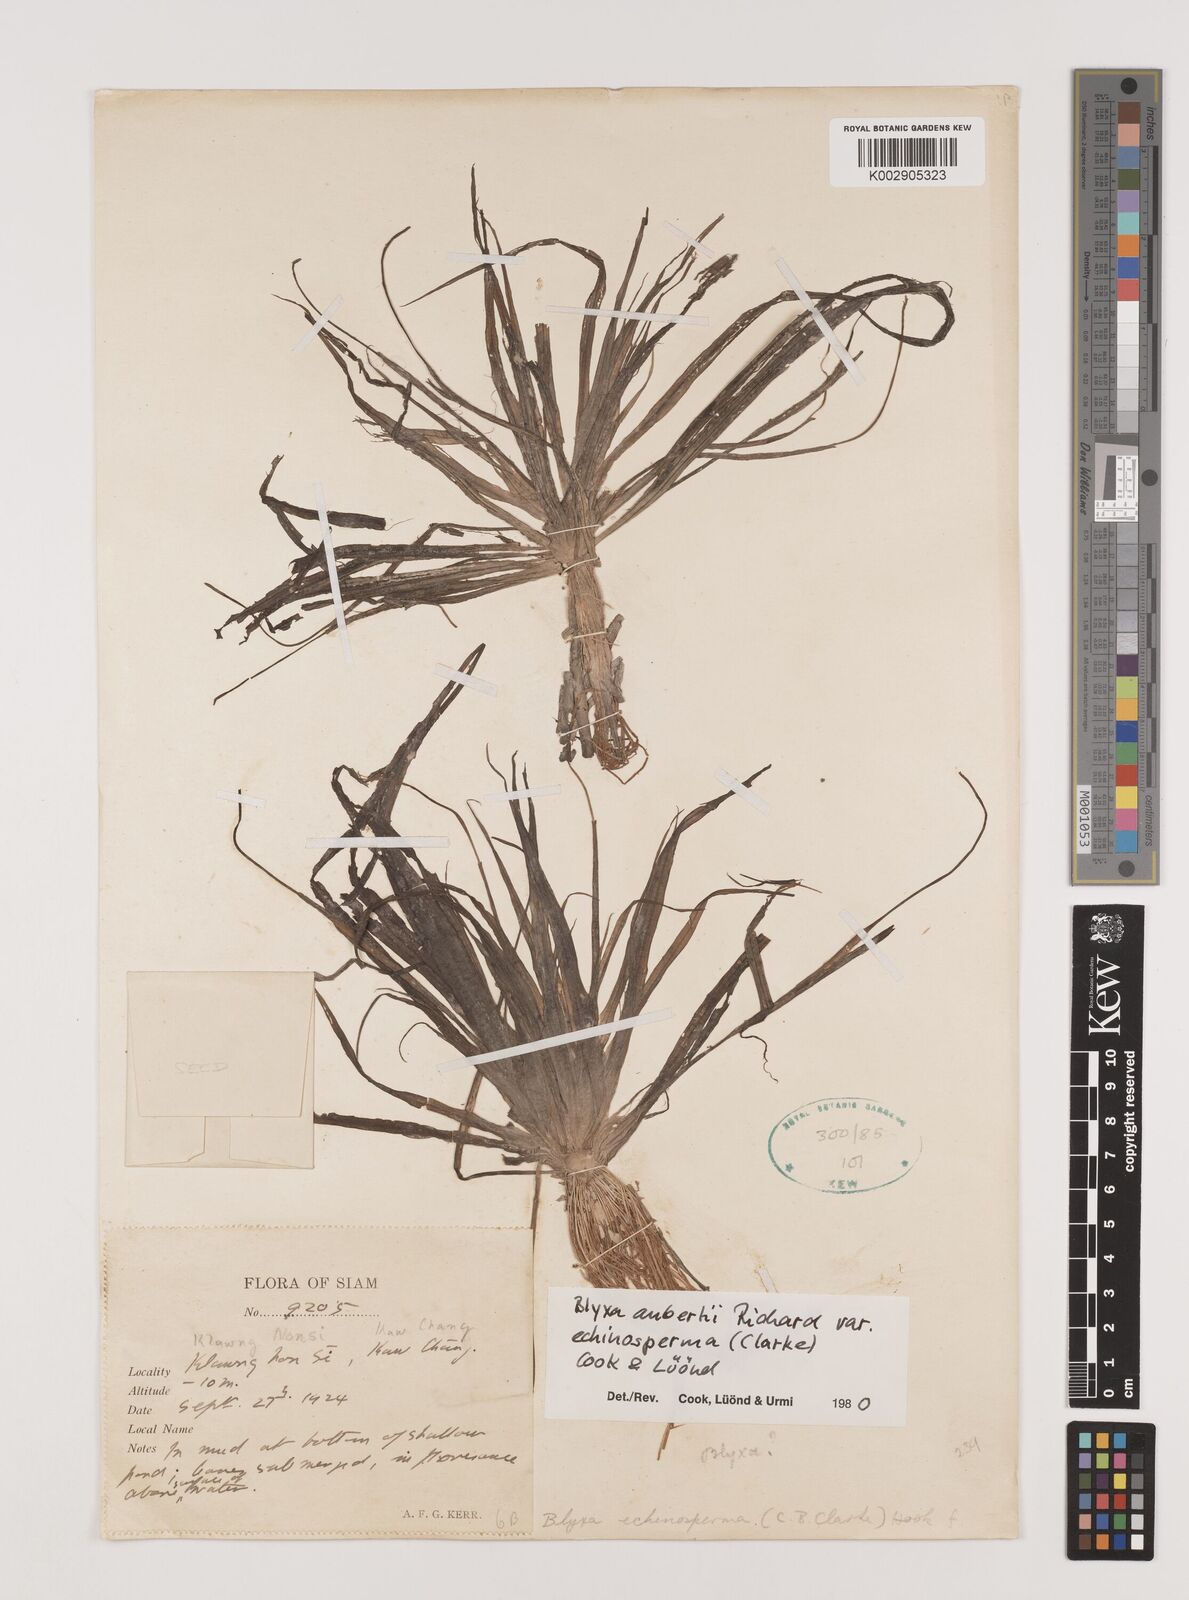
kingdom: Plantae
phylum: Tracheophyta
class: Liliopsida
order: Alismatales
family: Hydrocharitaceae
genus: Blyxa
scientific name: Blyxa echinosperma
